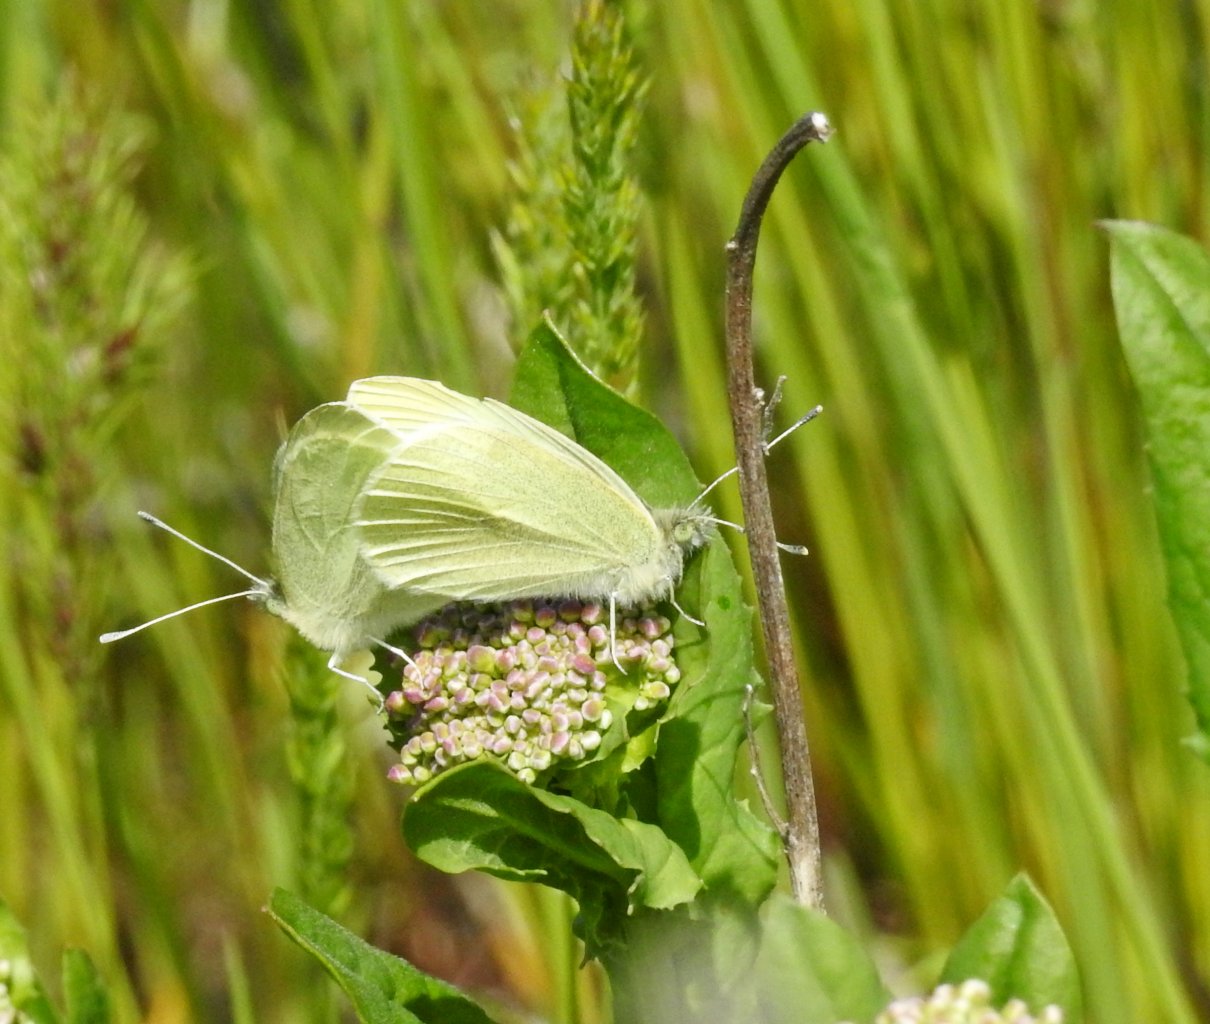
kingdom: Animalia
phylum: Arthropoda
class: Insecta
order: Lepidoptera
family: Pieridae
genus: Pieris
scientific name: Pieris rapae
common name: Cabbage White
